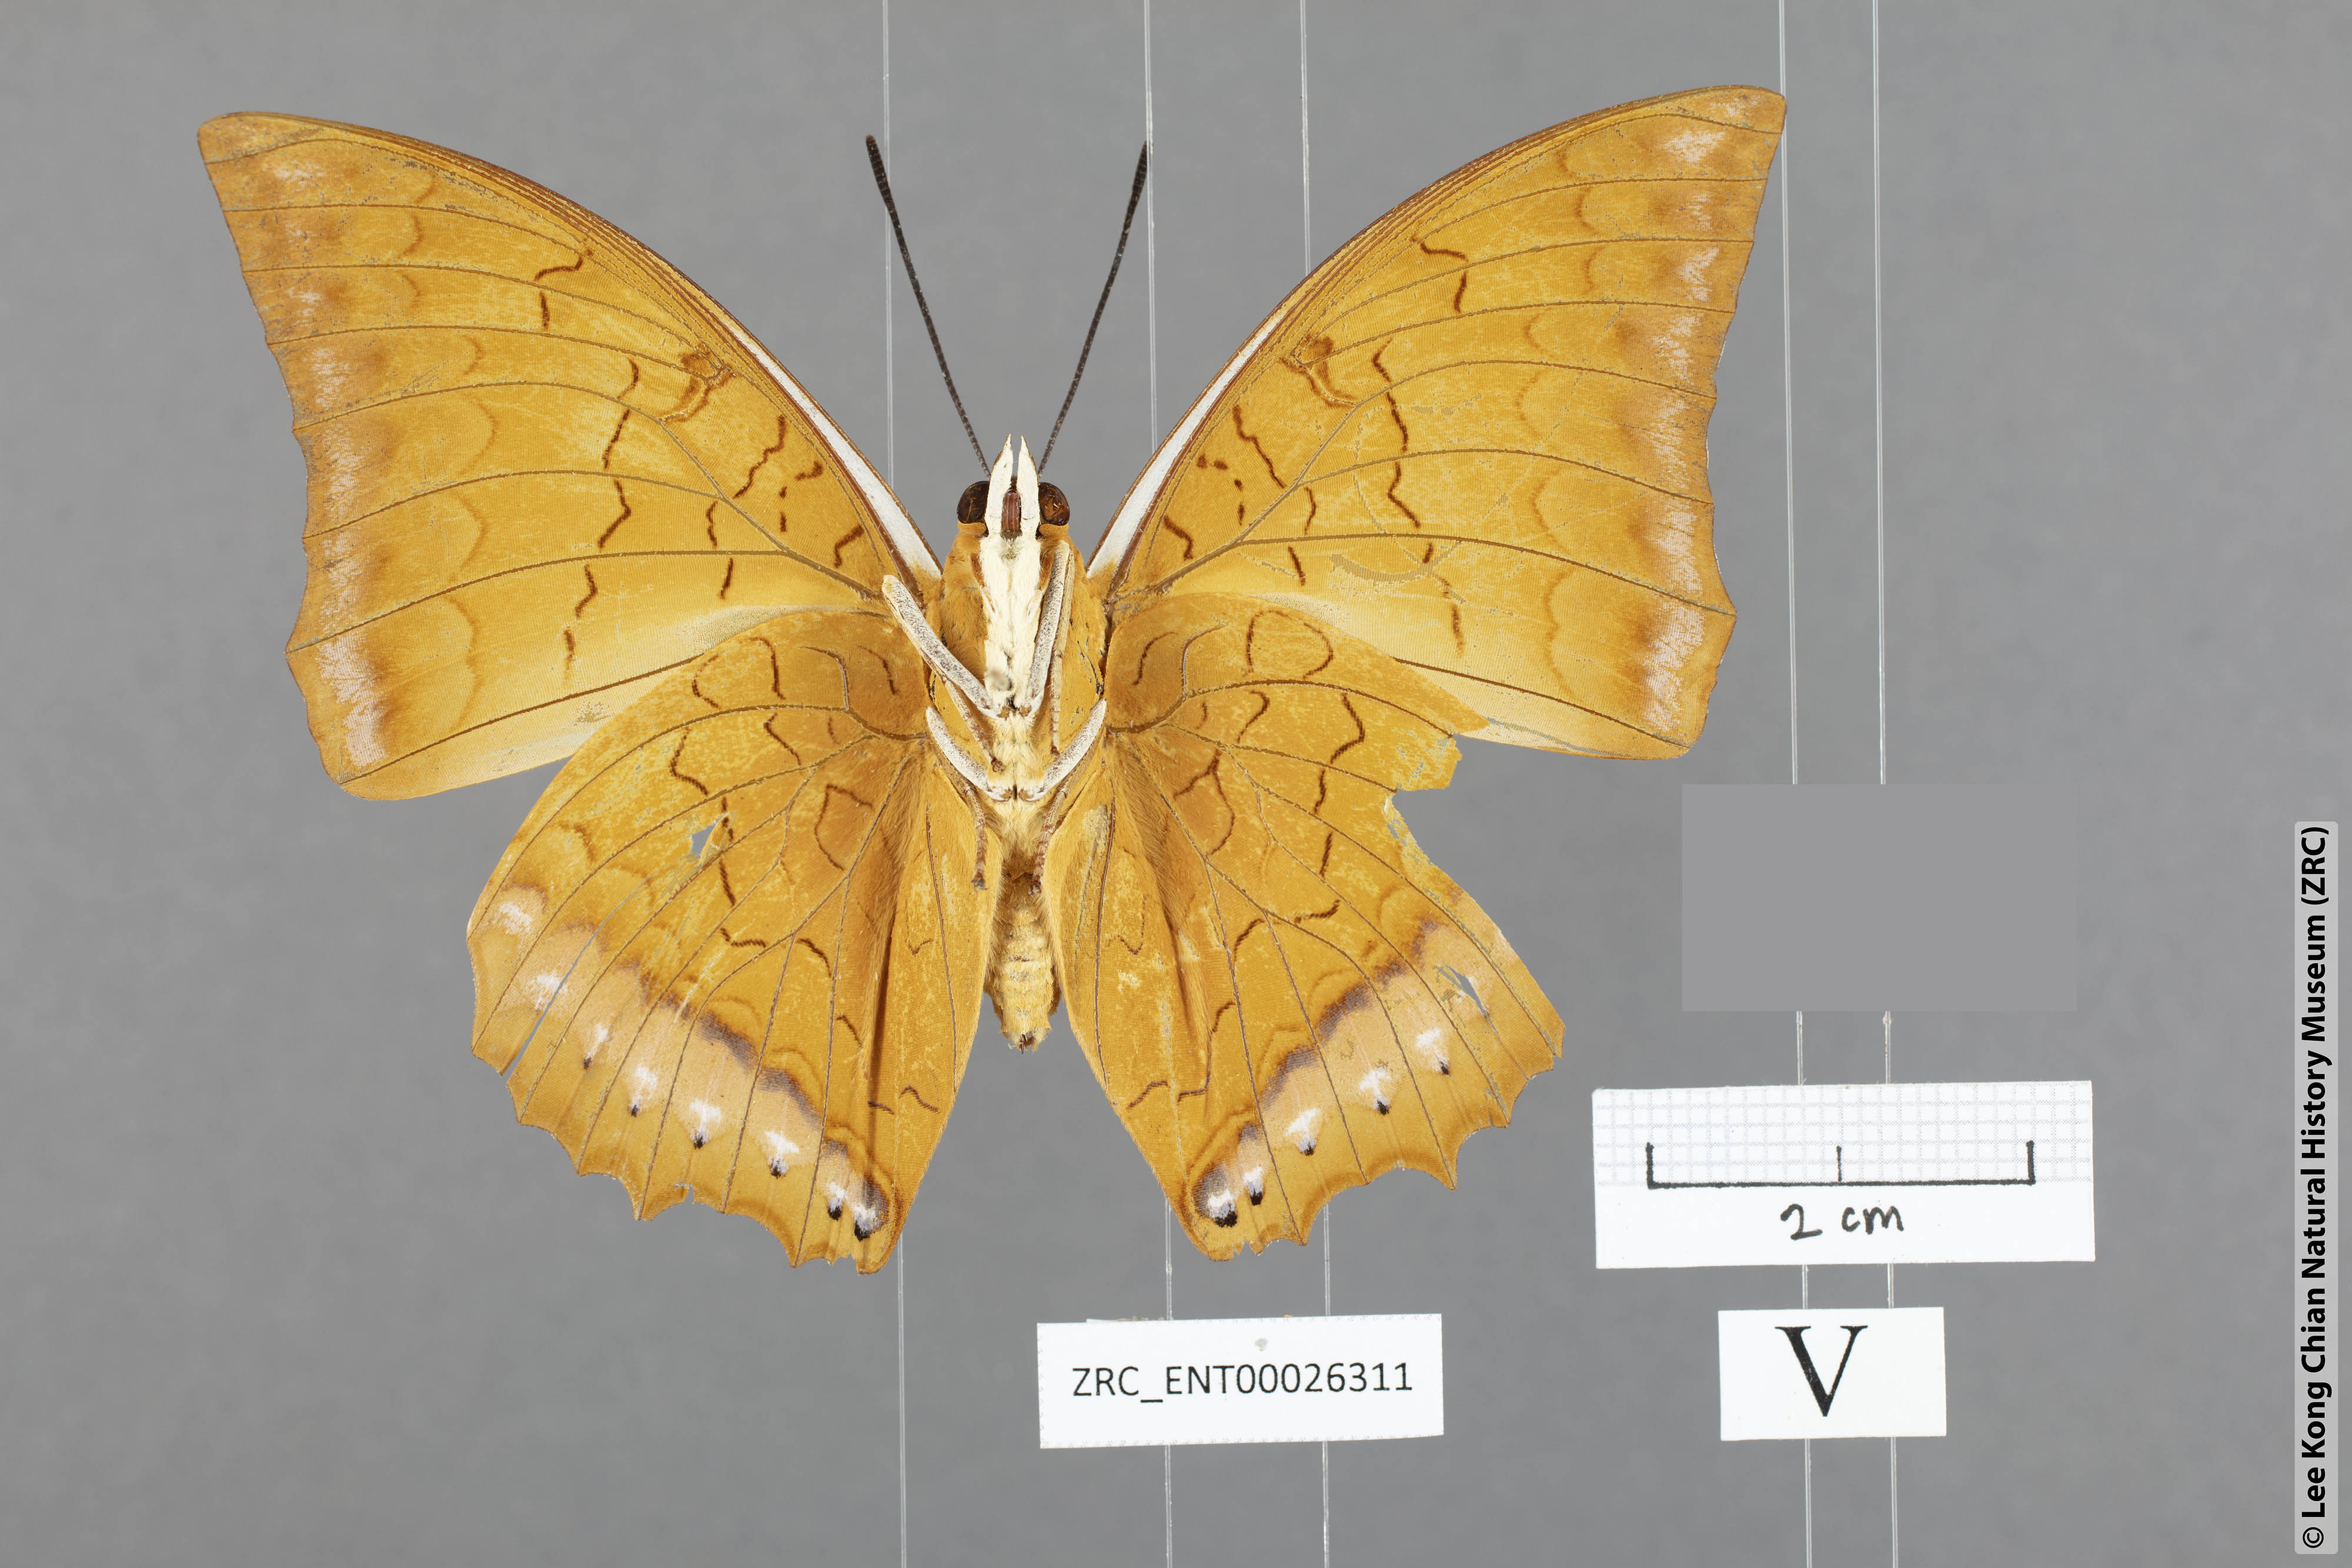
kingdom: Animalia
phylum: Arthropoda
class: Insecta
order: Lepidoptera
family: Nymphalidae
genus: Charaxes
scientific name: Charaxes distanti
